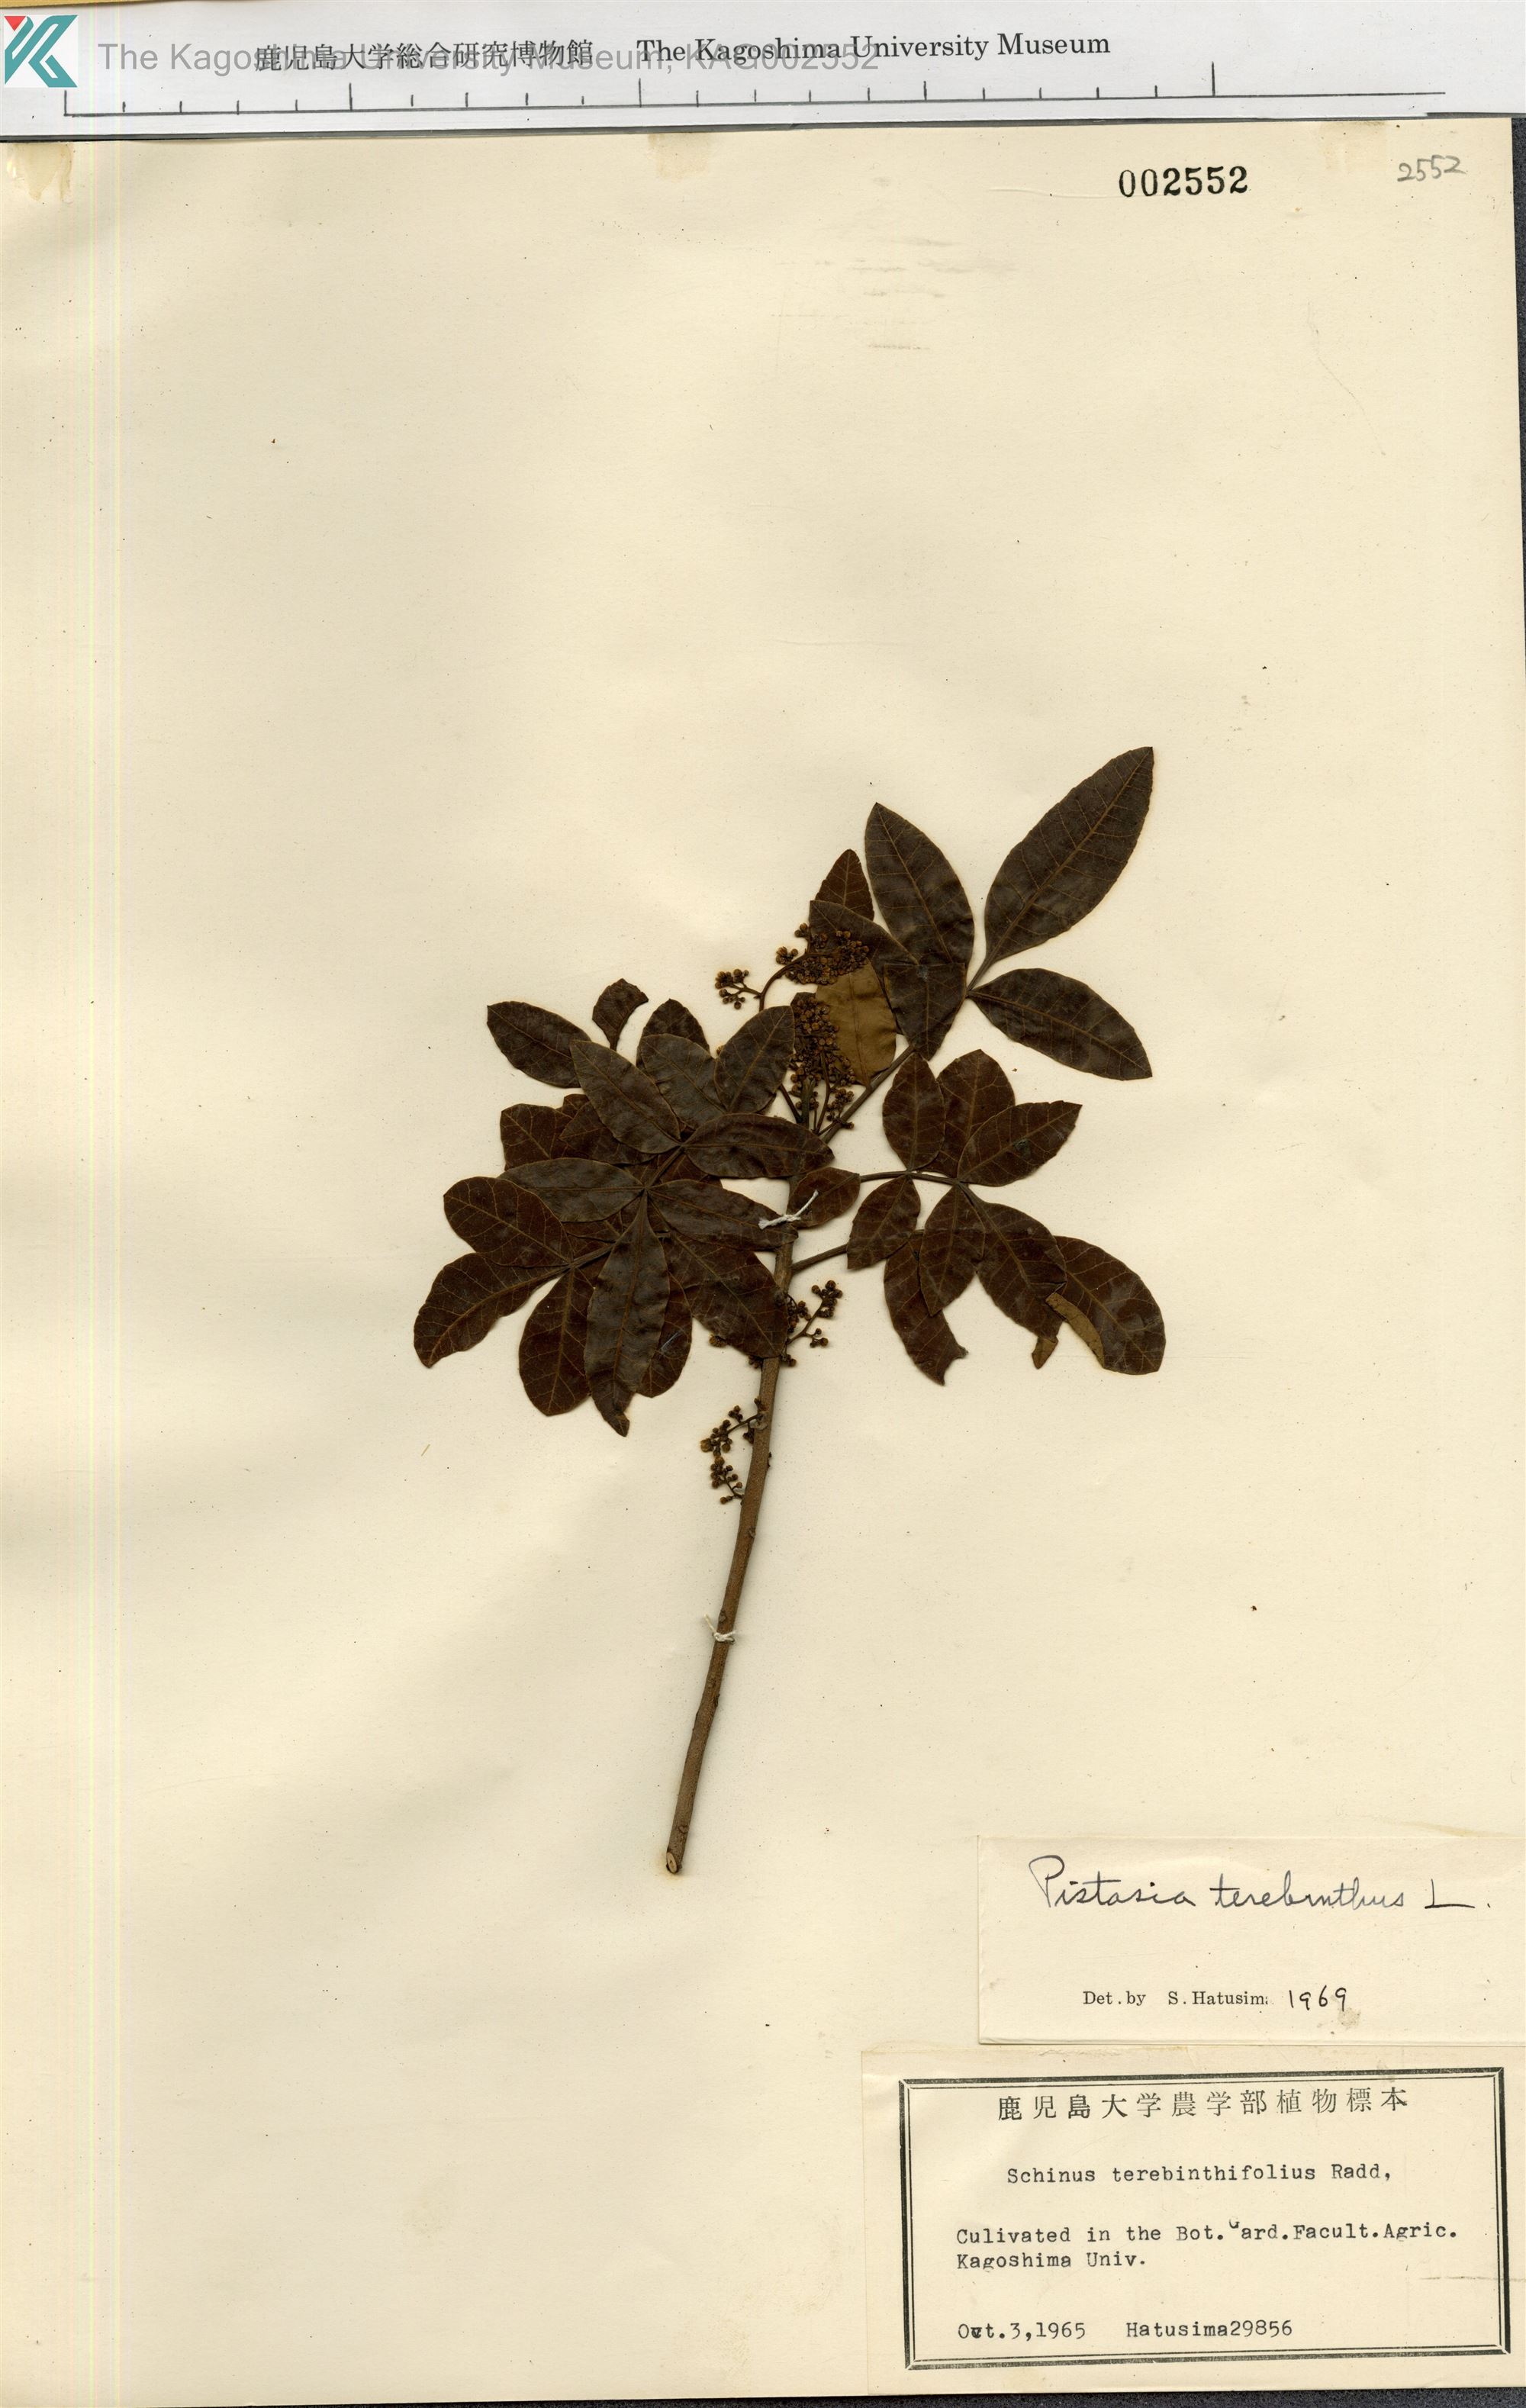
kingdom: Plantae
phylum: Tracheophyta
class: Magnoliopsida
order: Sapindales
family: Anacardiaceae
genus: Pistacia
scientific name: Pistacia terebinthus
